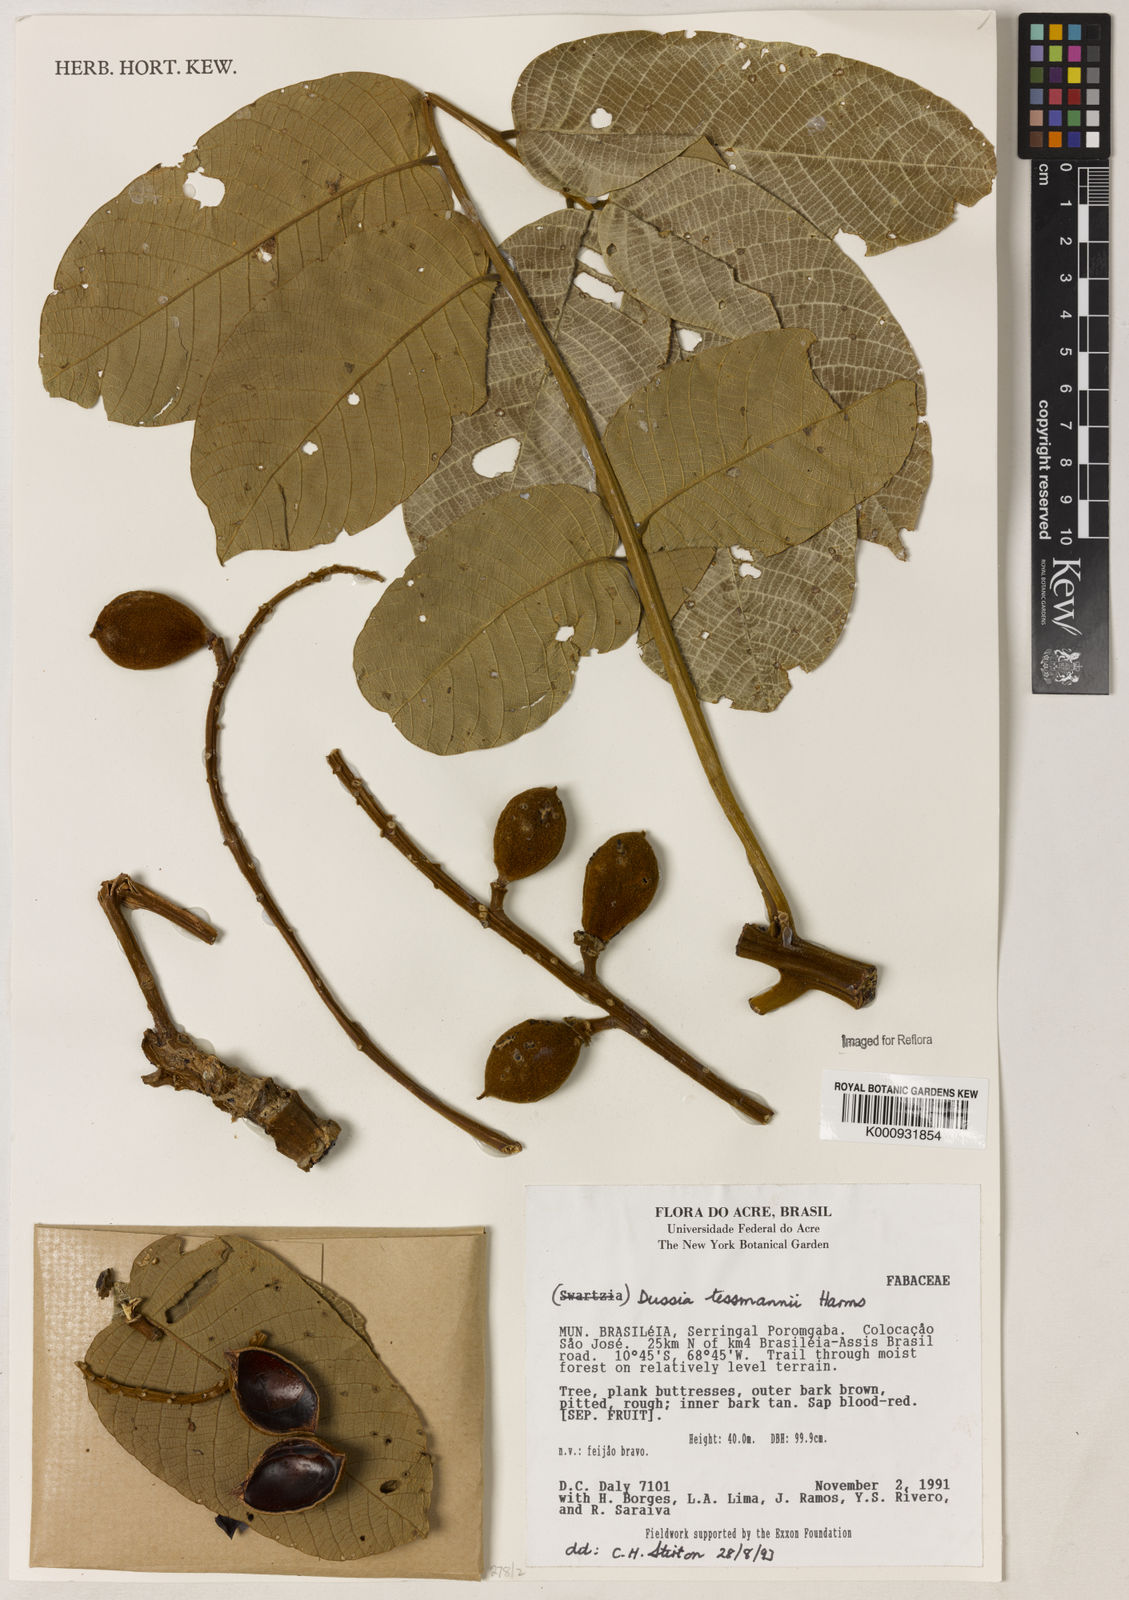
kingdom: Plantae
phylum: Tracheophyta
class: Magnoliopsida
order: Fabales
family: Fabaceae
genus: Dussia
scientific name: Dussia tessmannii
